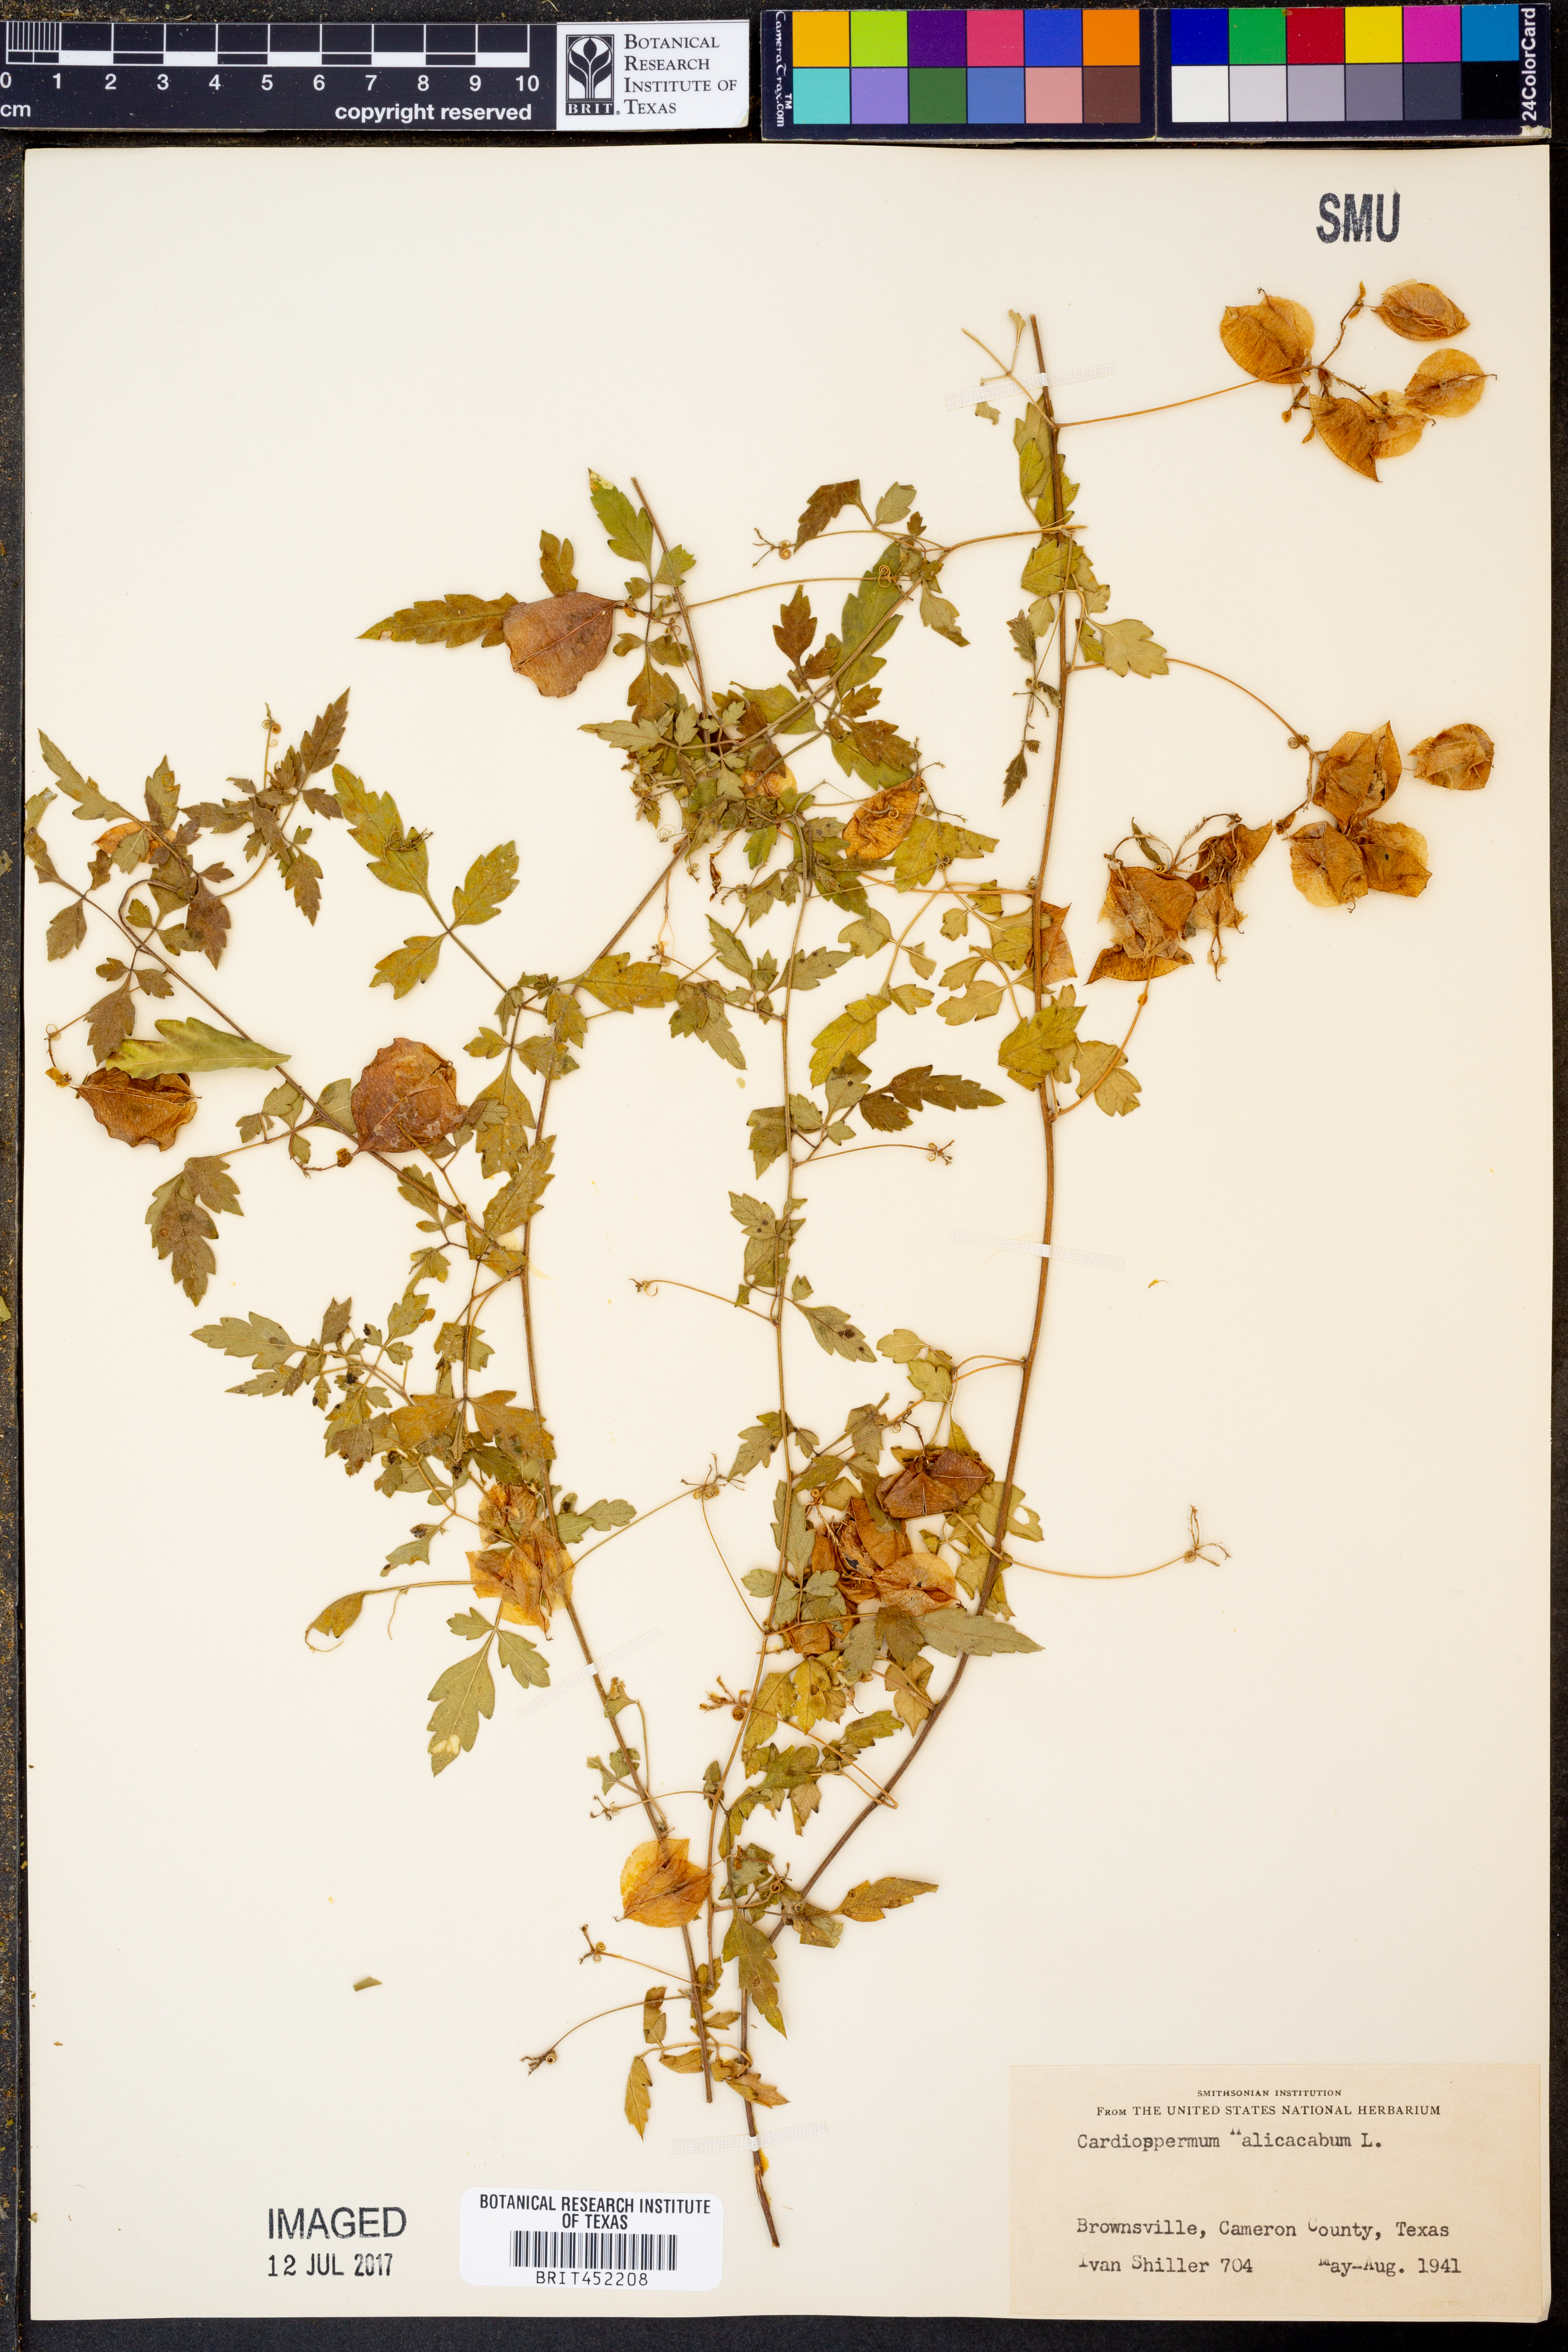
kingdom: Plantae
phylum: Tracheophyta
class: Magnoliopsida
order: Sapindales
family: Sapindaceae
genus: Cardiospermum
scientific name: Cardiospermum halicacabum
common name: Balloon vine
